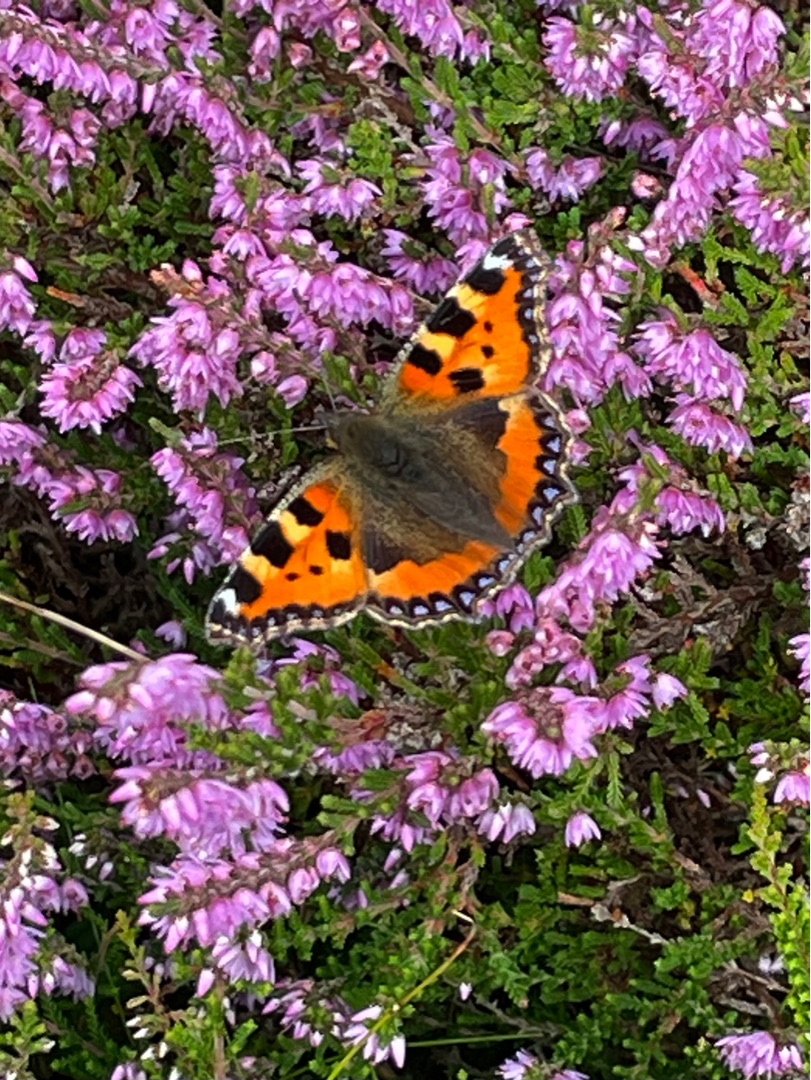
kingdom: Animalia
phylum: Arthropoda
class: Insecta
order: Lepidoptera
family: Nymphalidae
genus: Aglais
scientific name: Aglais urticae
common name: Nældens takvinge
